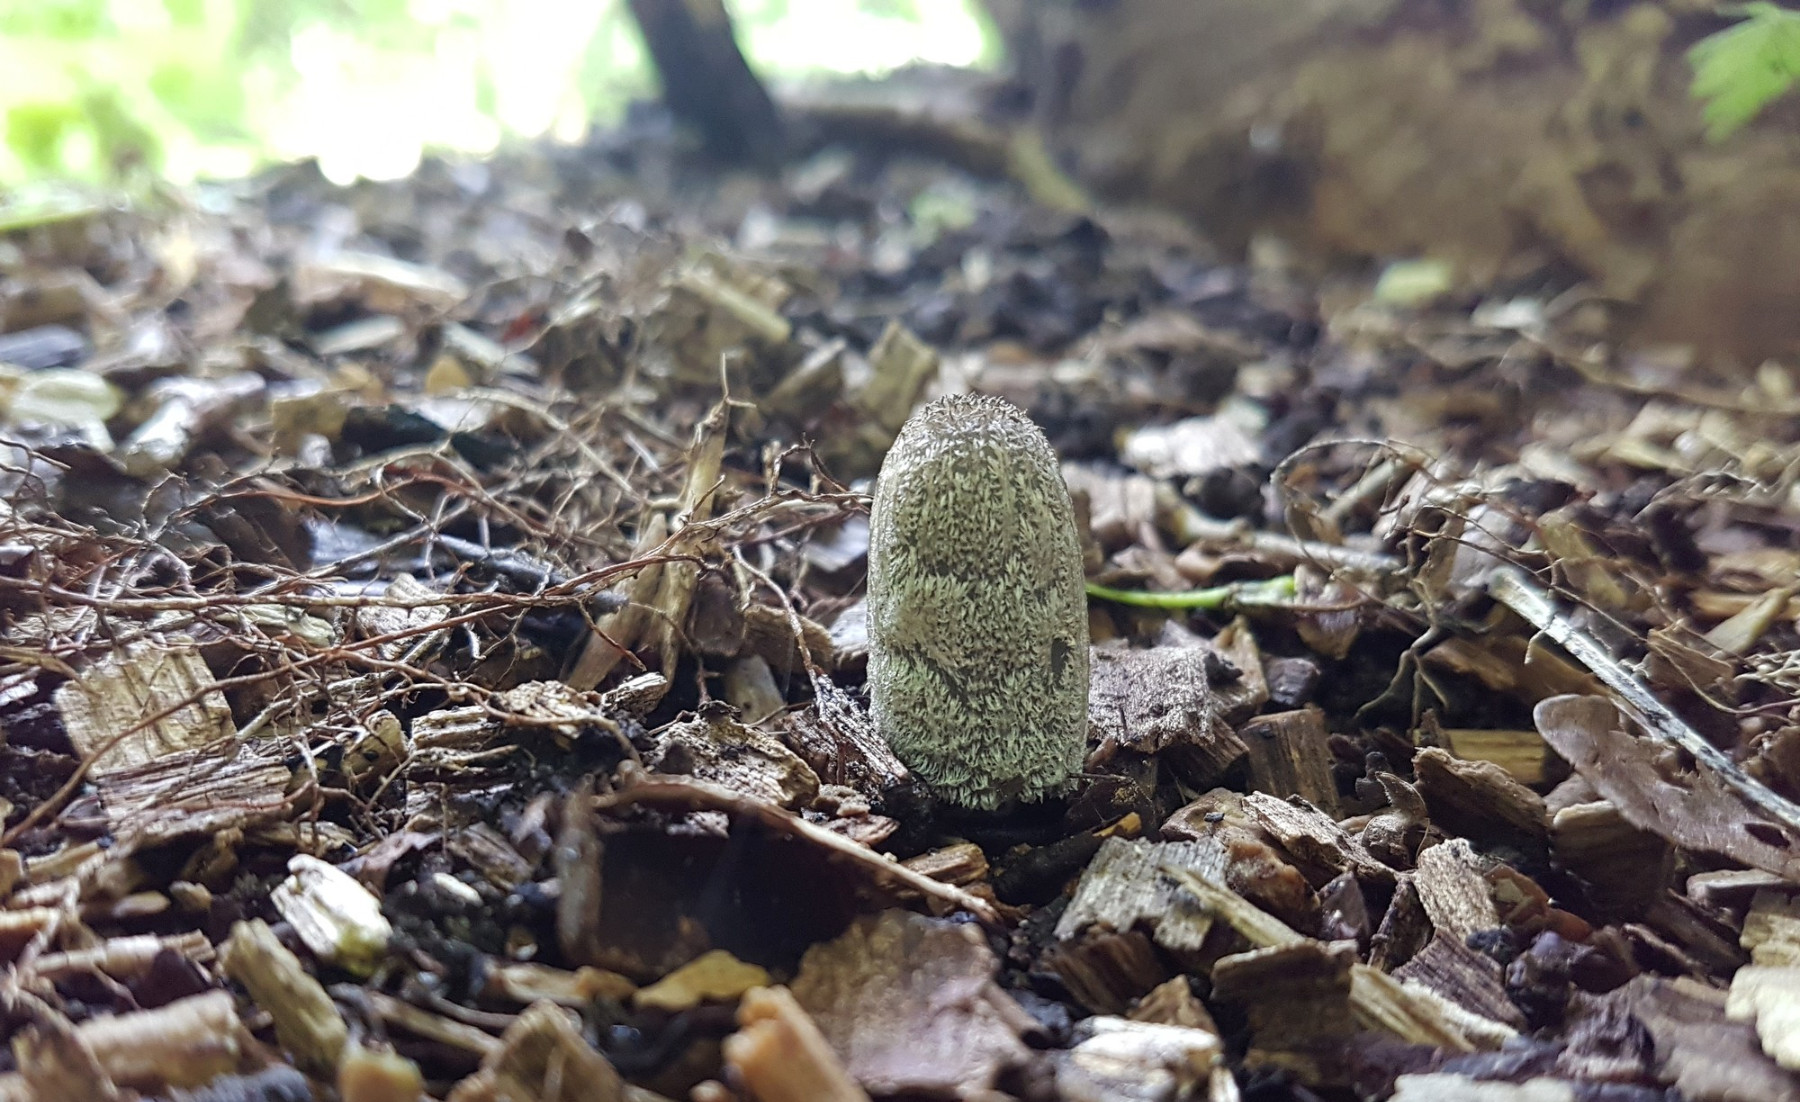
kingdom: Fungi
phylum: Basidiomycota
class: Agaricomycetes
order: Agaricales
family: Psathyrellaceae
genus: Coprinopsis
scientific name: Coprinopsis lagopus
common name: dunstokket blækhat
